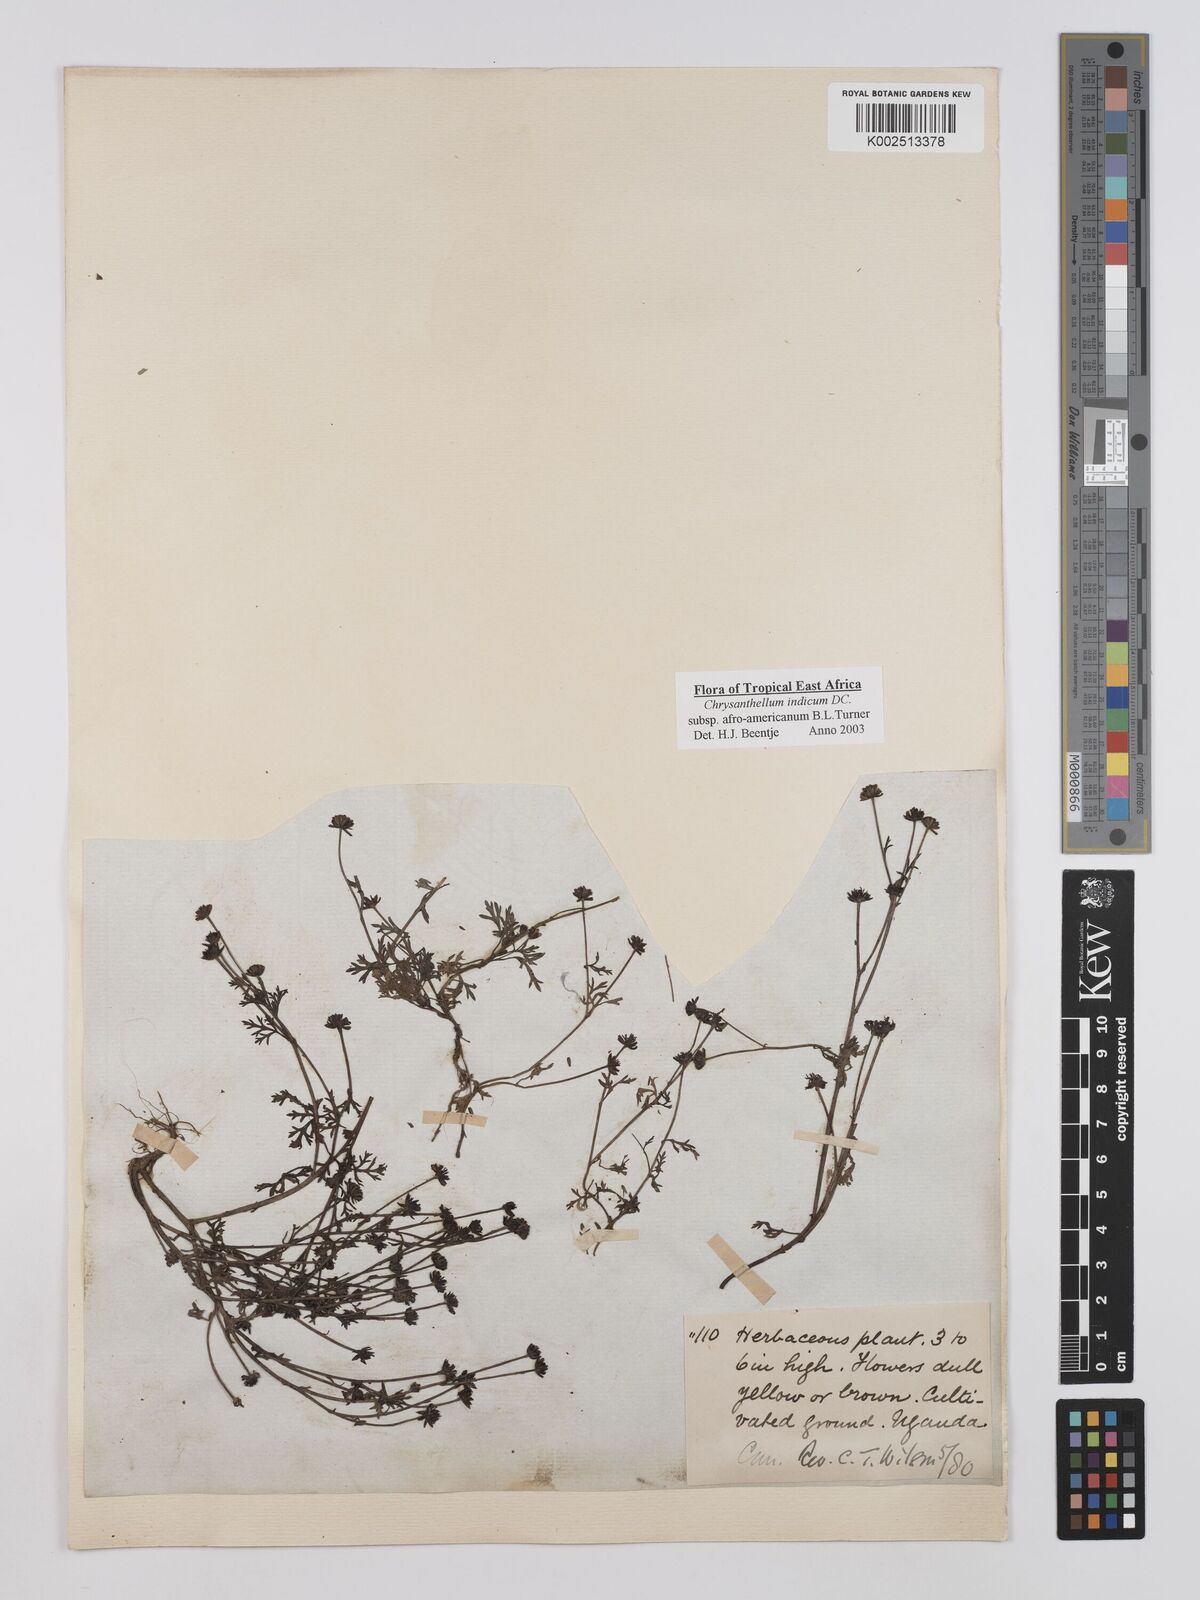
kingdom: Plantae
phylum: Tracheophyta
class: Magnoliopsida
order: Asterales
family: Asteraceae
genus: Chrysanthellum
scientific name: Chrysanthellum indicum
